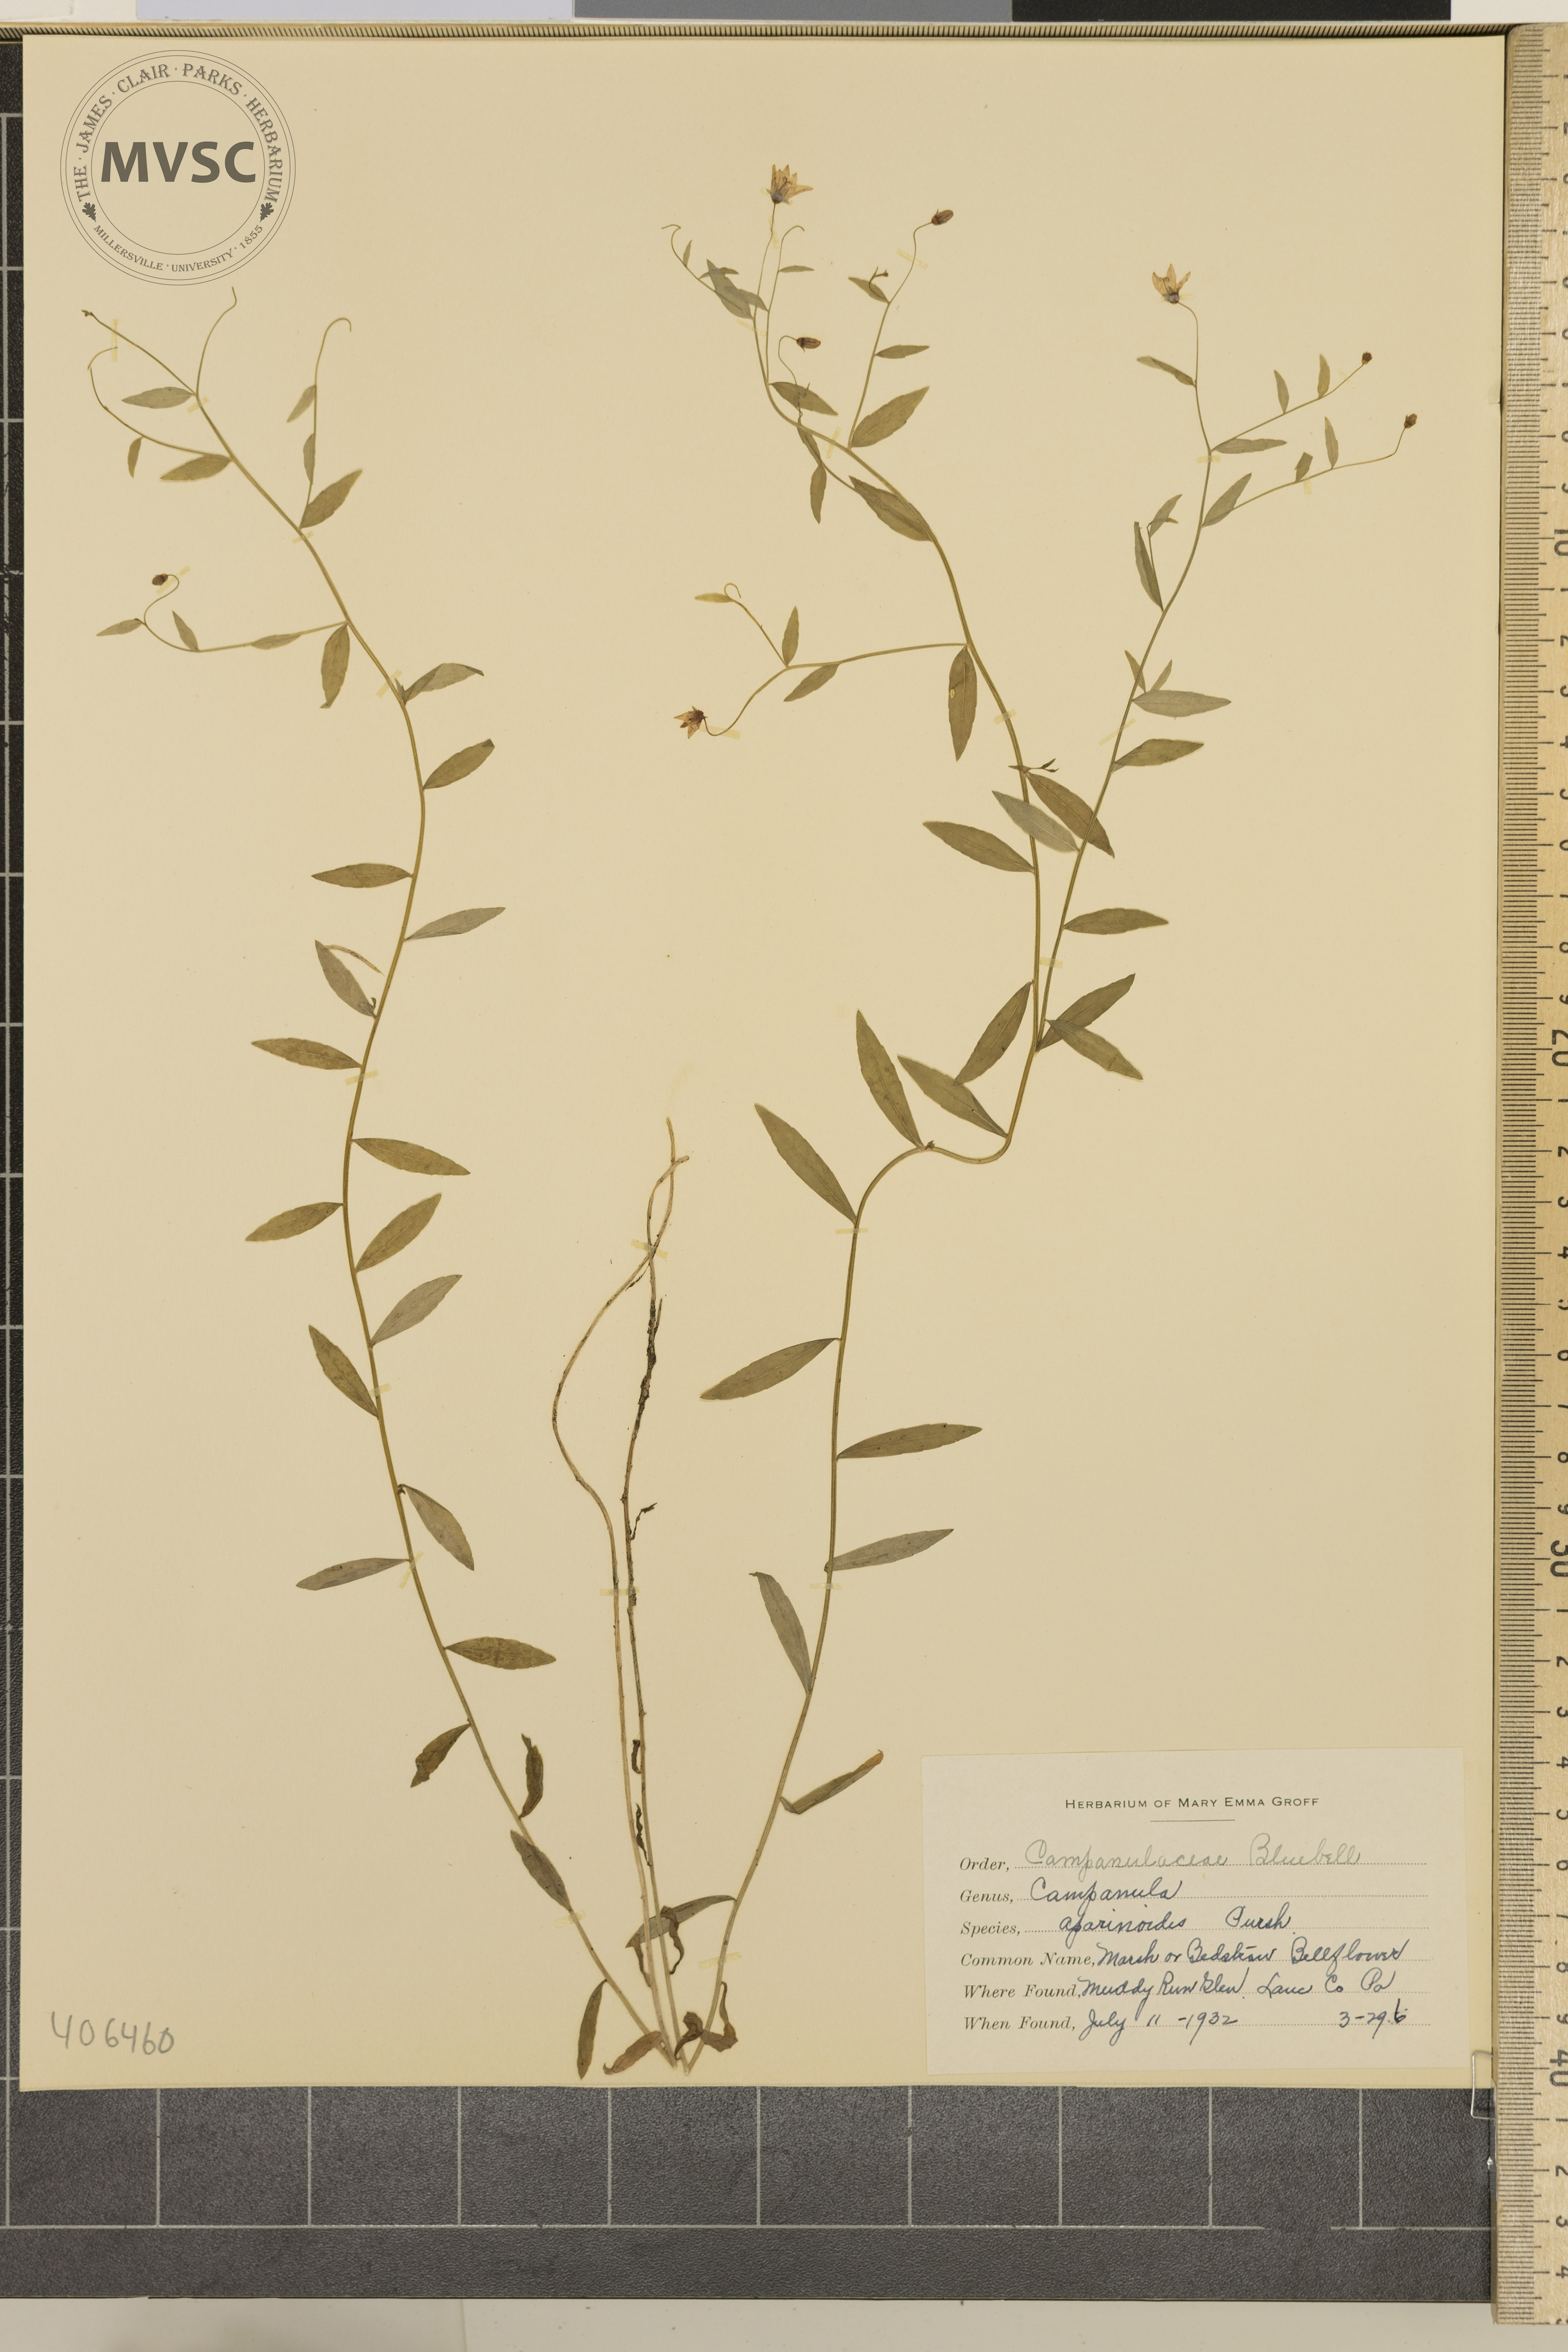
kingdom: Plantae
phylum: Tracheophyta
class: Magnoliopsida
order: Asterales
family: Campanulaceae
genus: Palustricodon
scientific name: Palustricodon aparinoides
